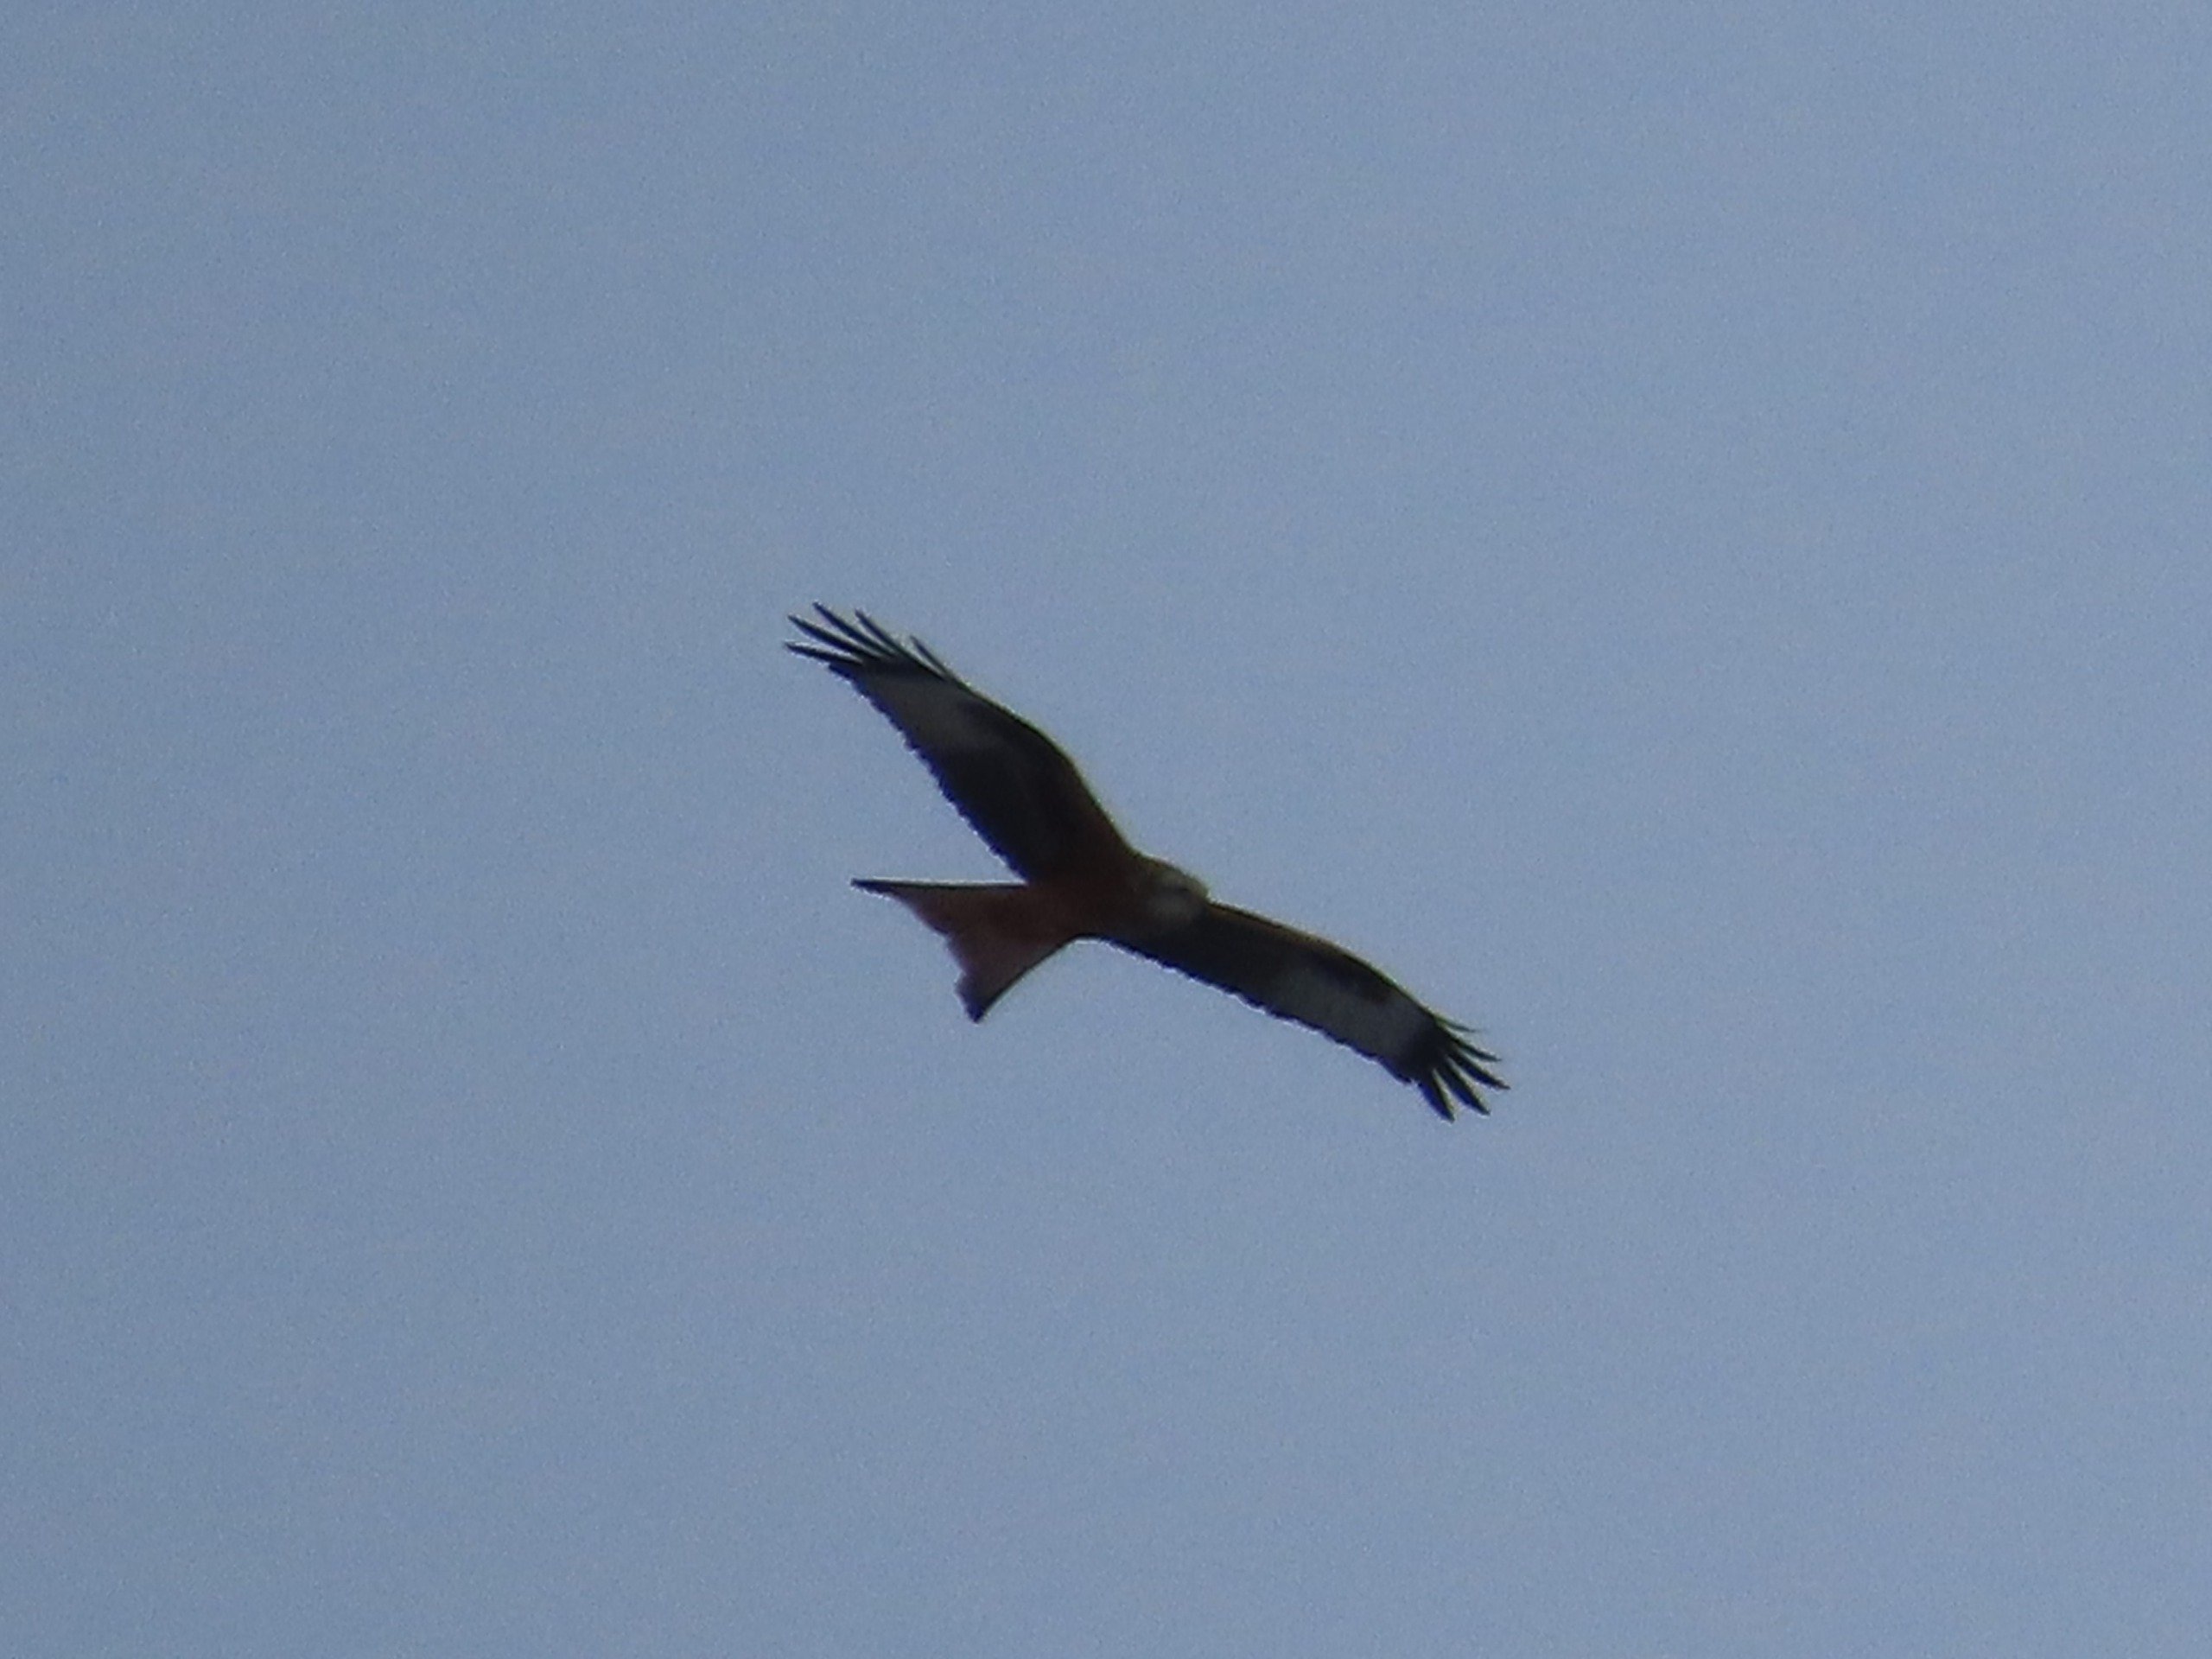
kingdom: Animalia
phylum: Chordata
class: Aves
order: Accipitriformes
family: Accipitridae
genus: Milvus
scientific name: Milvus milvus
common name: Rød glente
